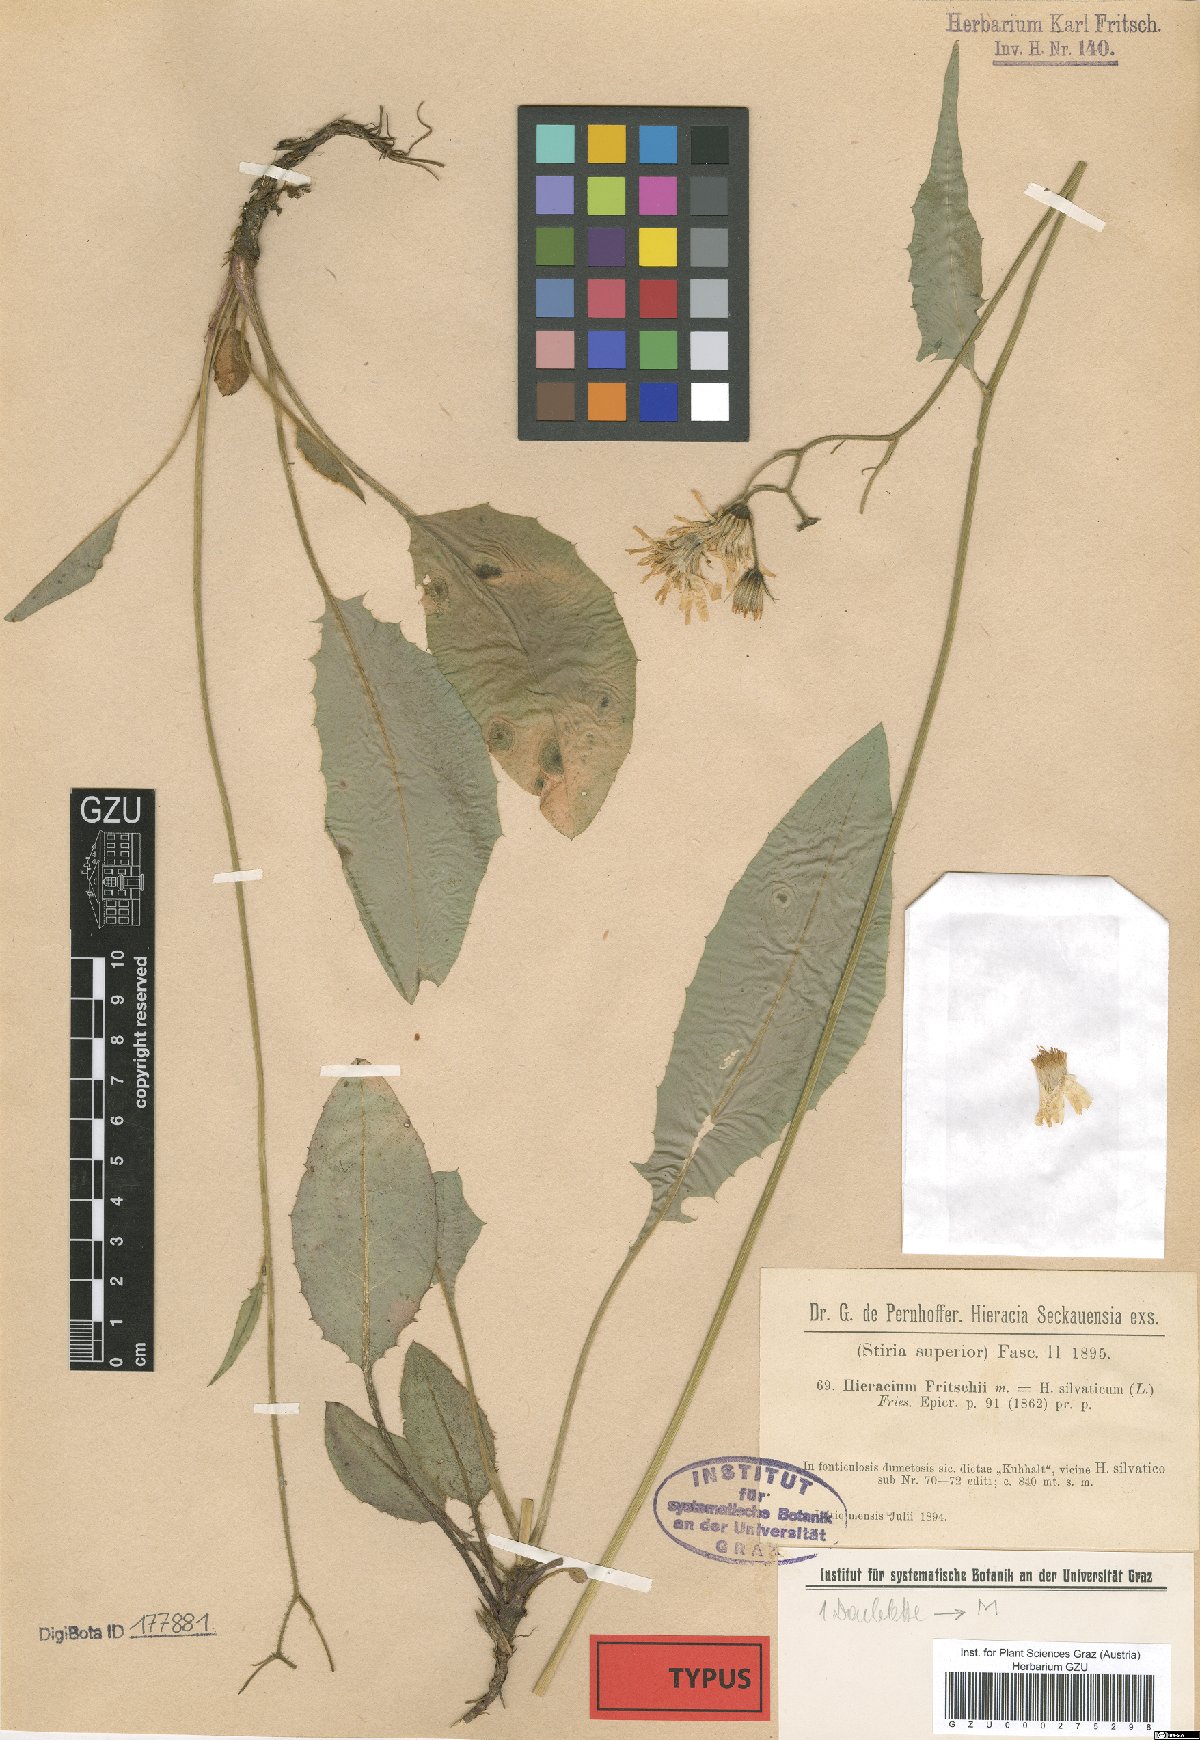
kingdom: Plantae
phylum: Tracheophyta
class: Magnoliopsida
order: Asterales
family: Asteraceae
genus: Hieracium
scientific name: Hieracium murorum
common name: Wall hawkweed
